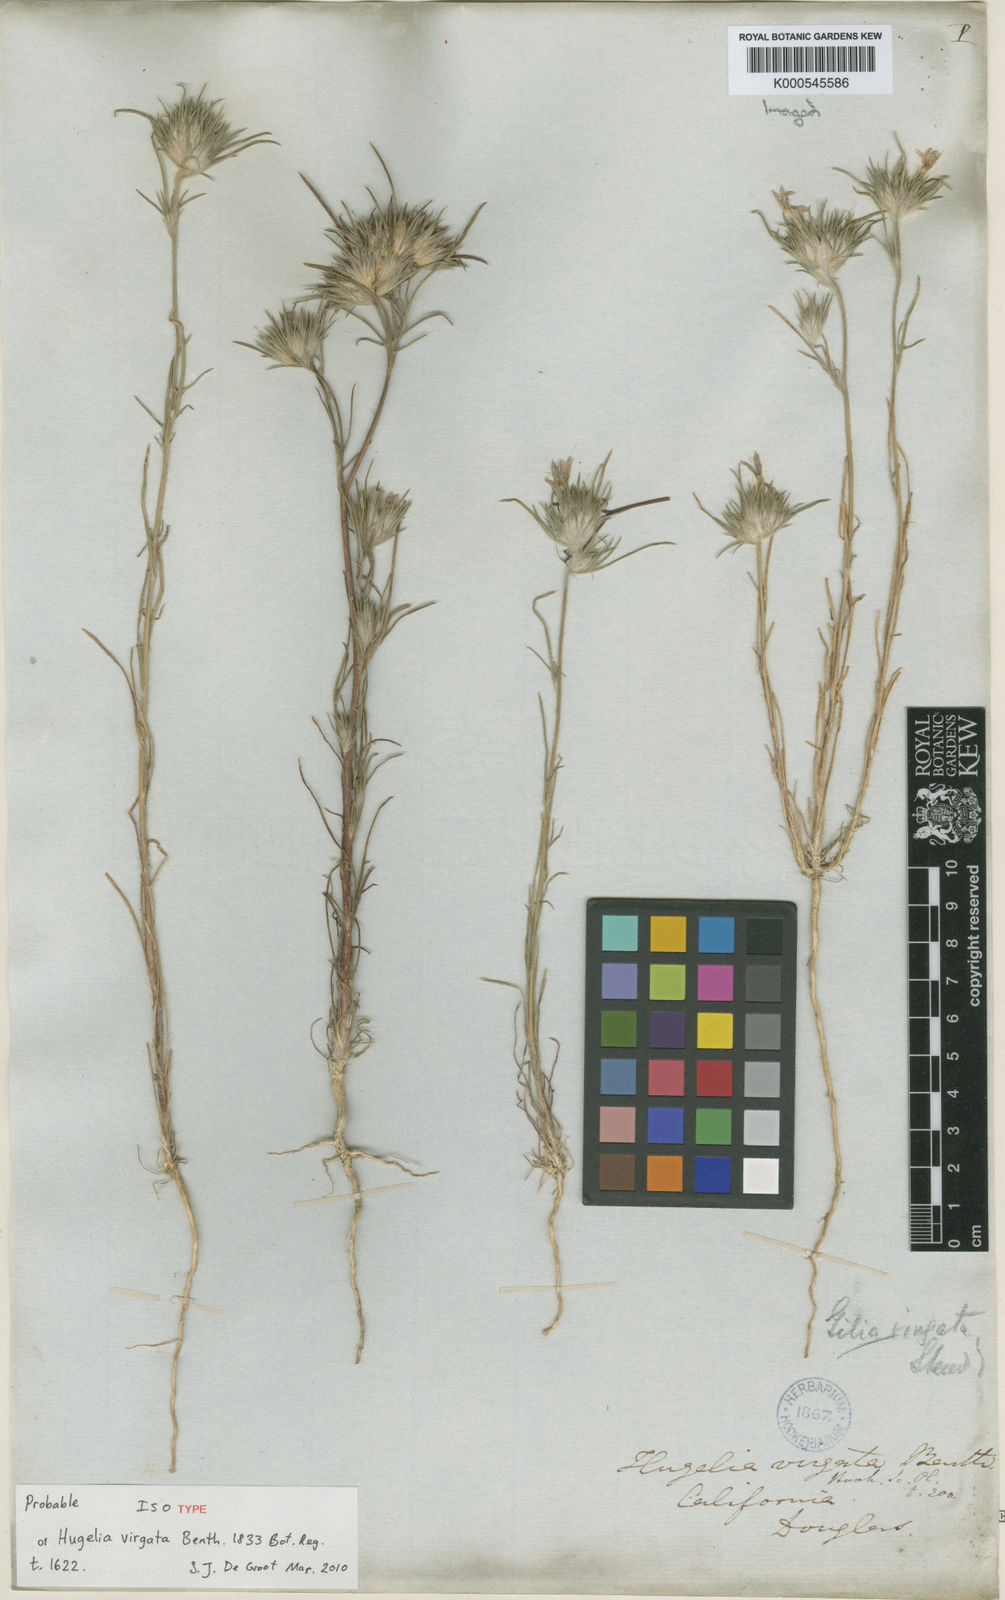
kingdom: Plantae
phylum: Tracheophyta
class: Magnoliopsida
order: Ericales
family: Polemoniaceae
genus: Eriastrum
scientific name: Eriastrum virgatum
